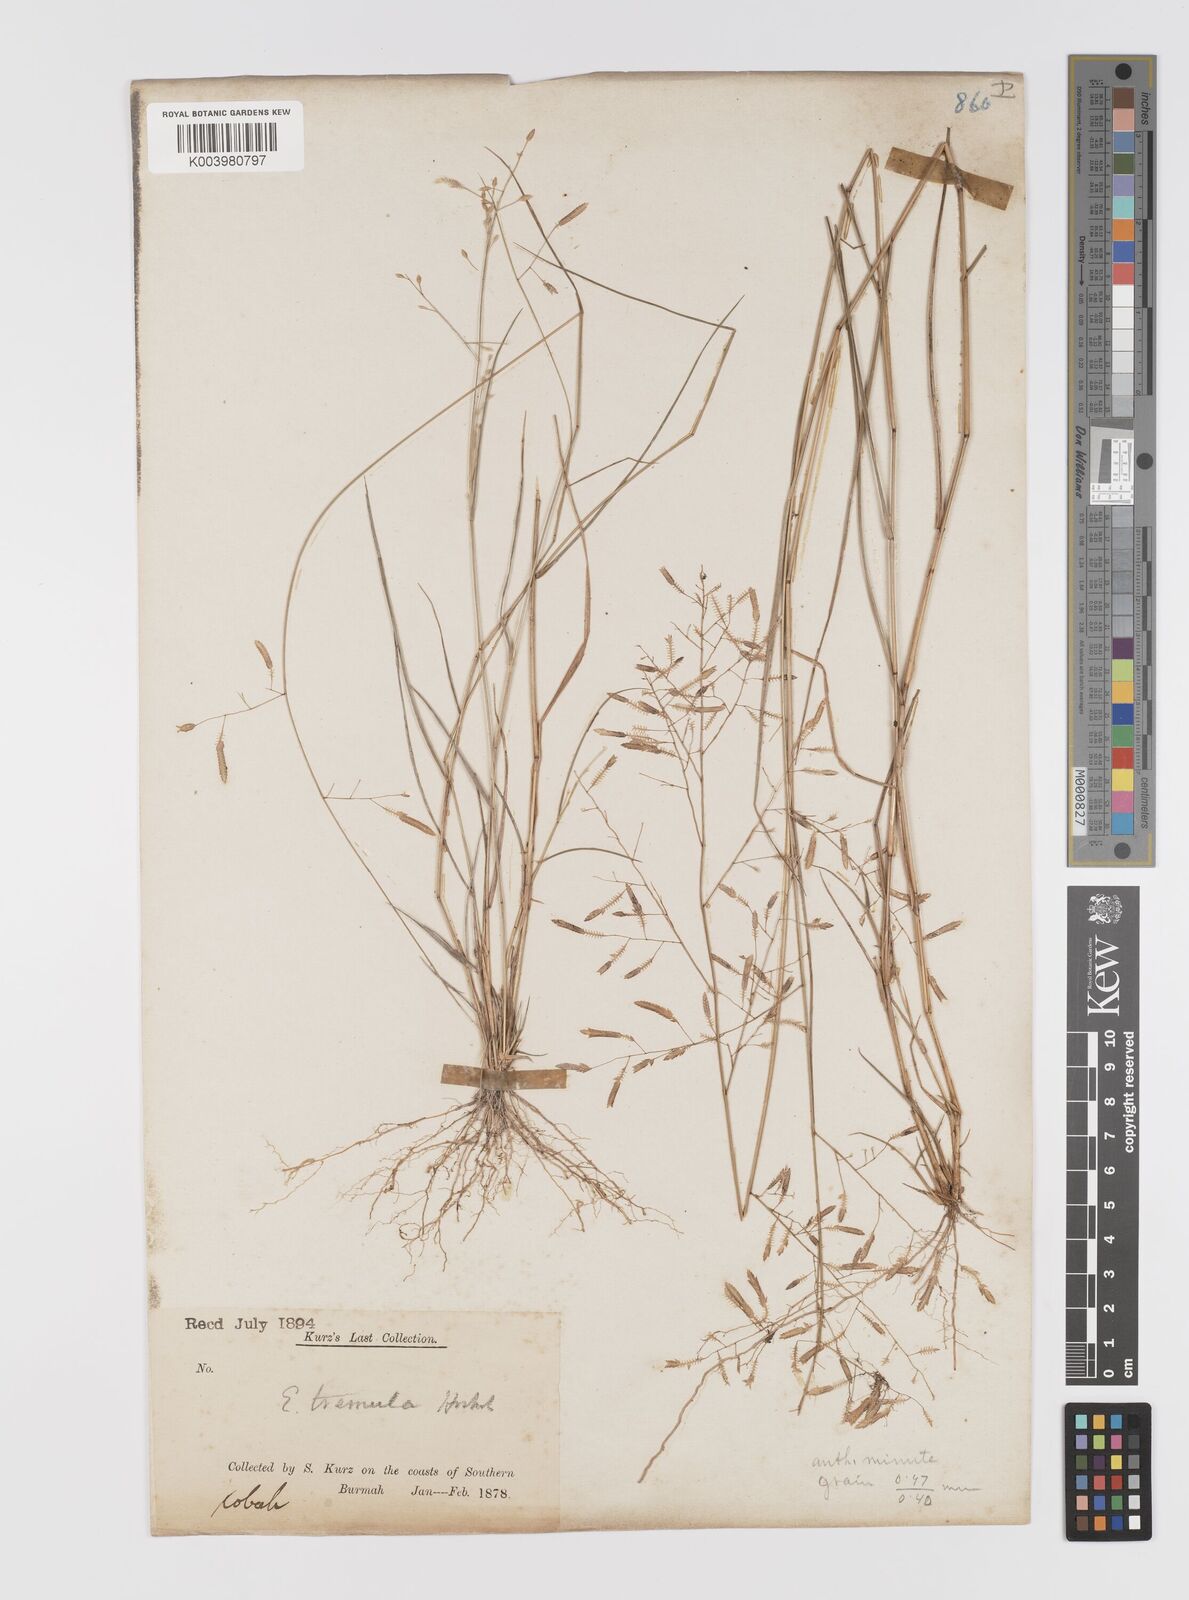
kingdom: Plantae
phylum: Tracheophyta
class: Liliopsida
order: Poales
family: Poaceae
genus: Eragrostis
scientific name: Eragrostis tremula
